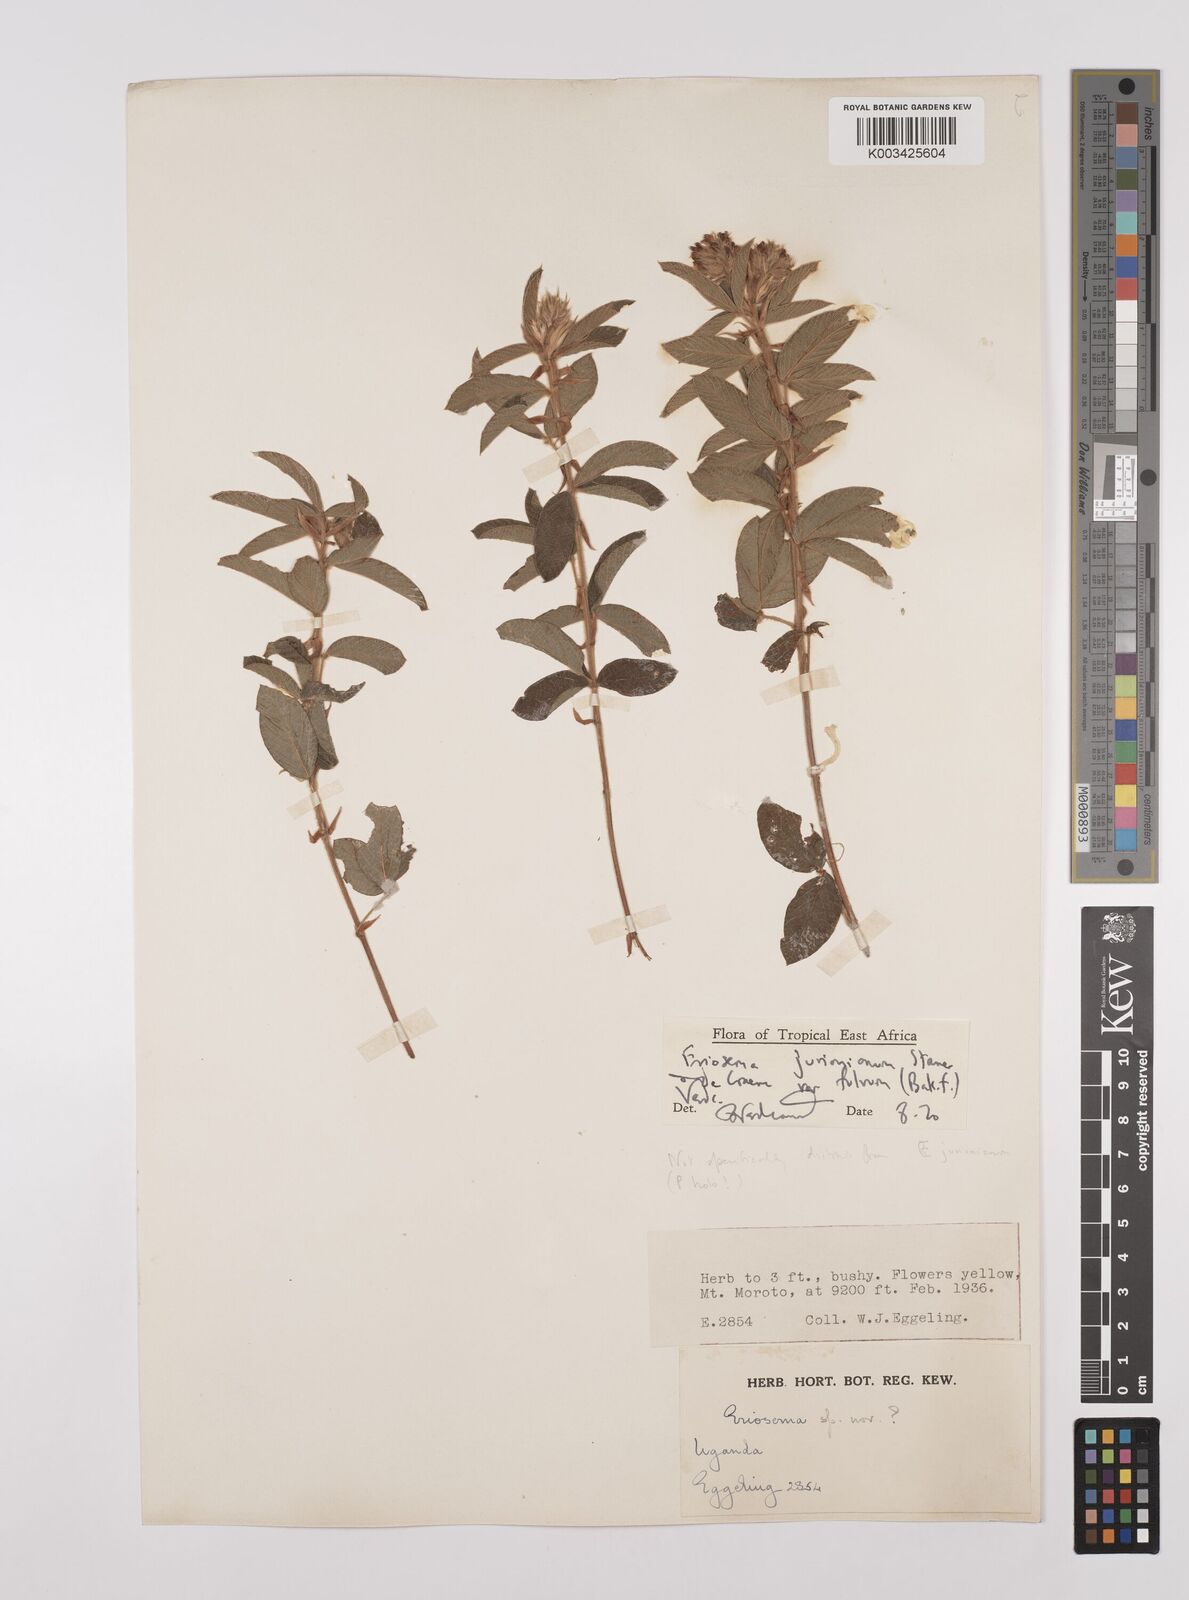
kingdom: Plantae
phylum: Tracheophyta
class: Magnoliopsida
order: Fabales
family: Fabaceae
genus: Eriosema
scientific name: Eriosema jurionianum
